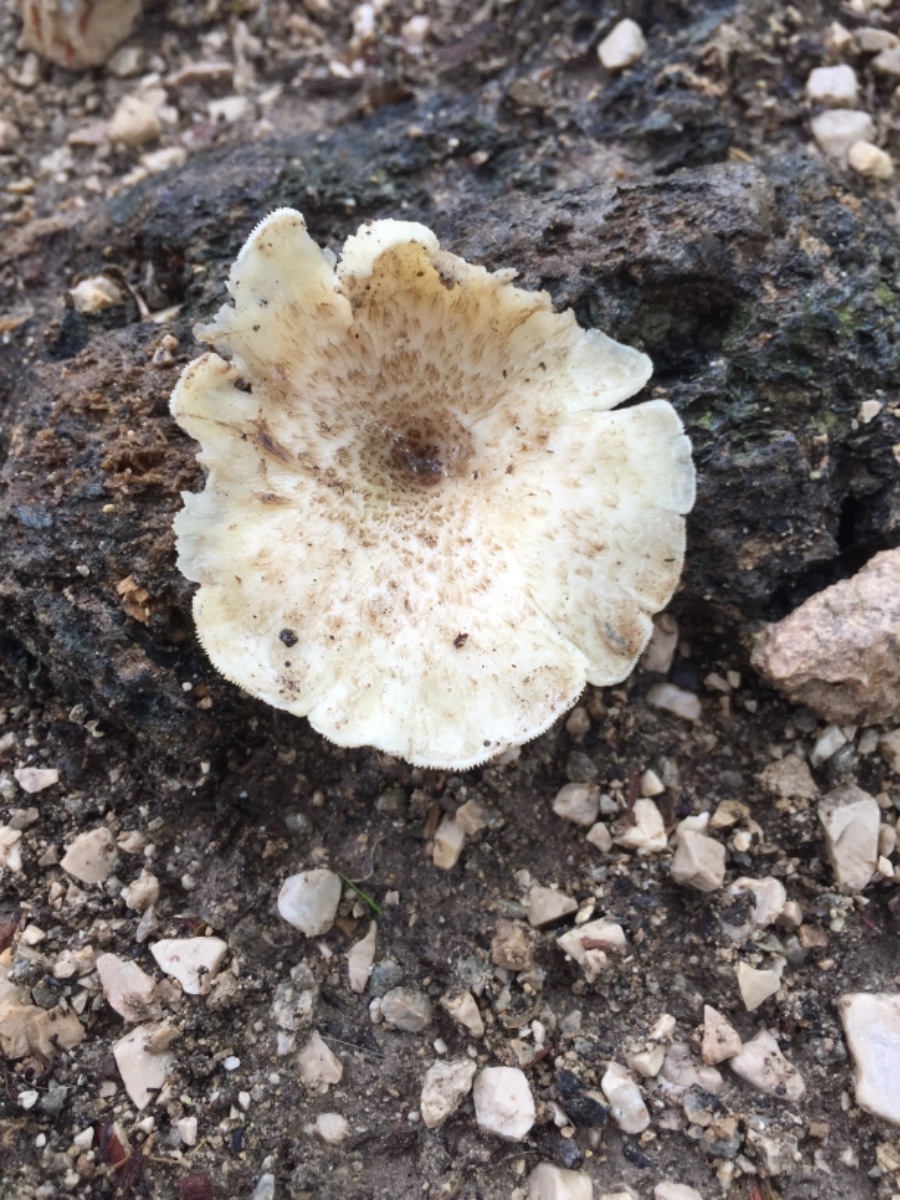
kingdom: Fungi
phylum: Basidiomycota
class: Agaricomycetes
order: Polyporales
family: Polyporaceae
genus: Lentinus
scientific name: Lentinus tigrinus
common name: tigerhat
